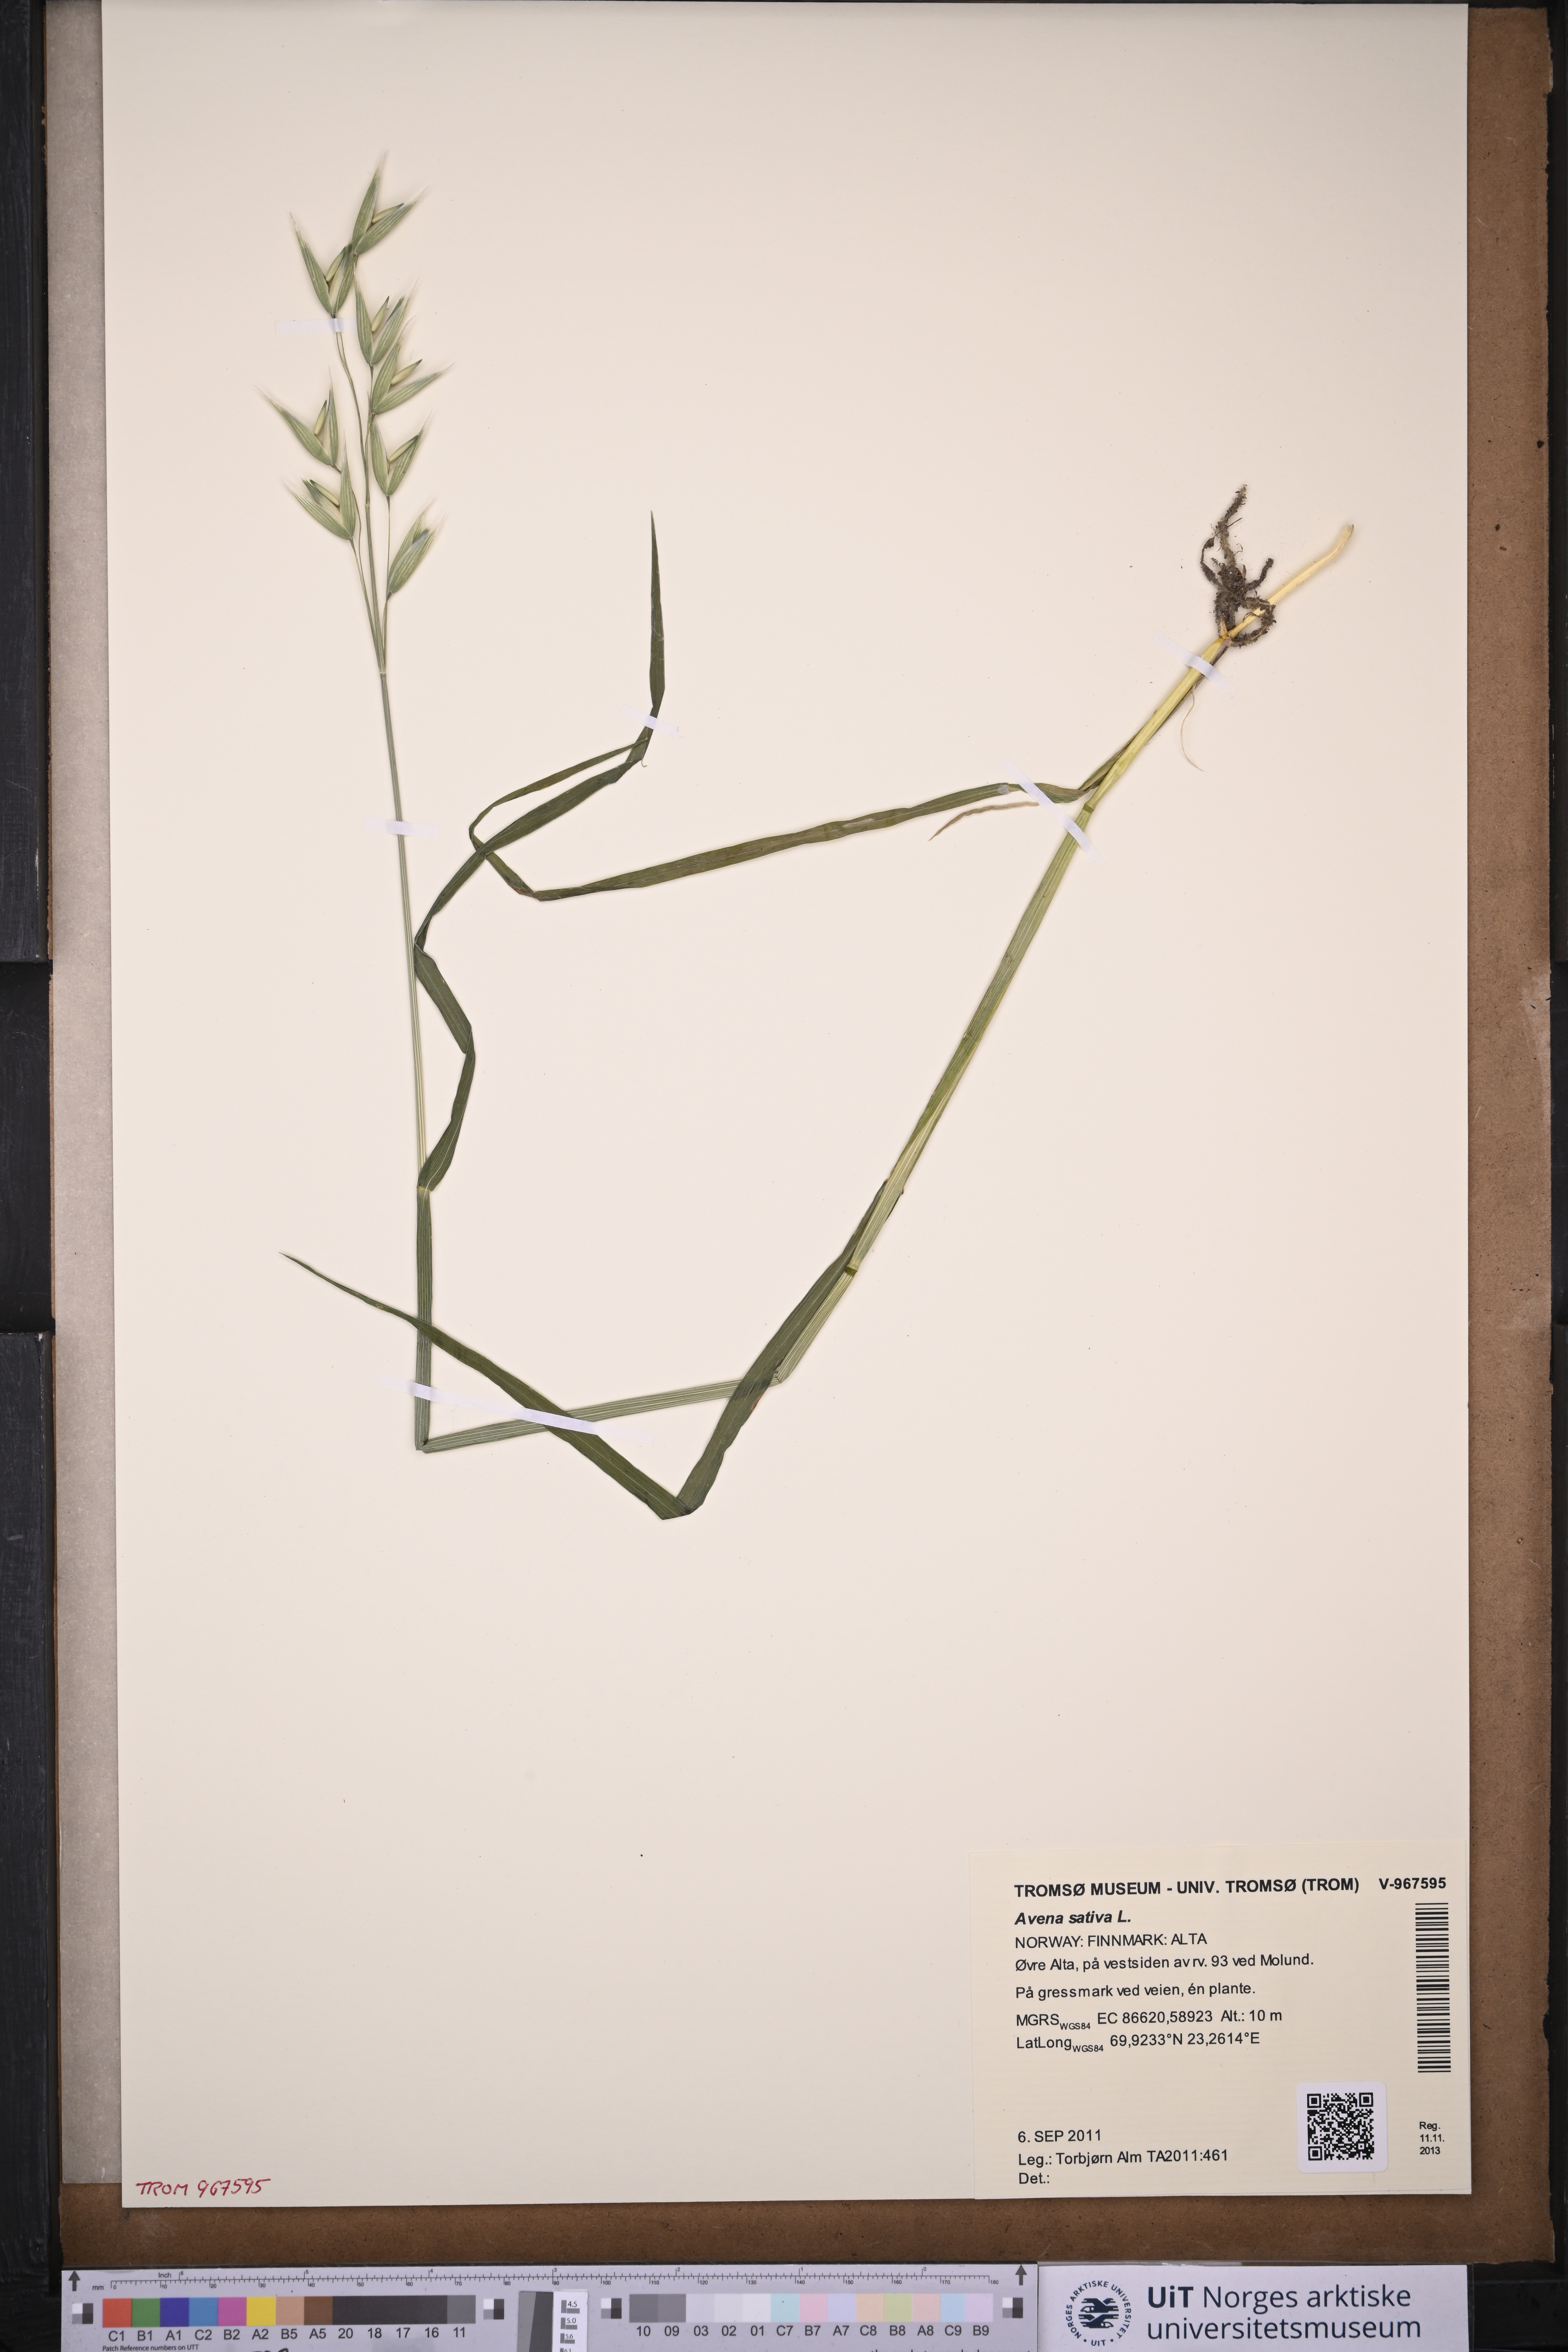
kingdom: Plantae
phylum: Tracheophyta
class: Liliopsida
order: Poales
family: Poaceae
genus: Avena
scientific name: Avena sativa
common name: Oat
